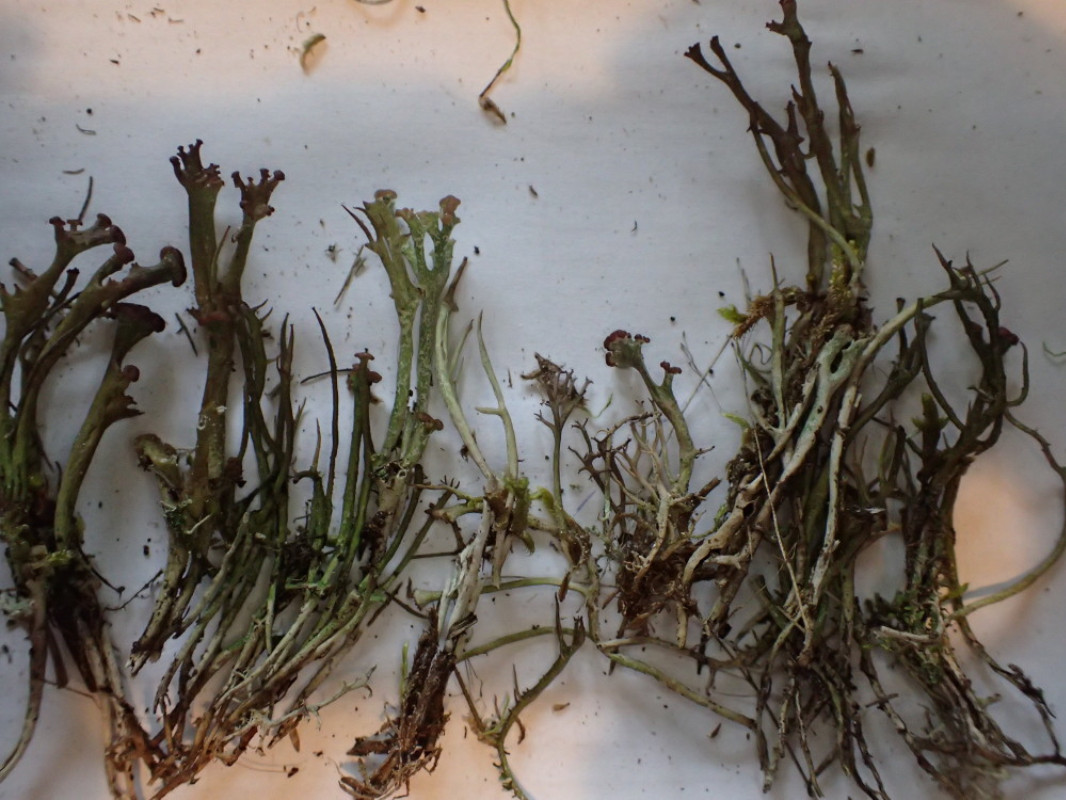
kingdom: Fungi
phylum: Ascomycota
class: Lecanoromycetes
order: Lecanorales
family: Cladoniaceae
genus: Cladonia
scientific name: Cladonia gracilis
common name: slank bægerlav
